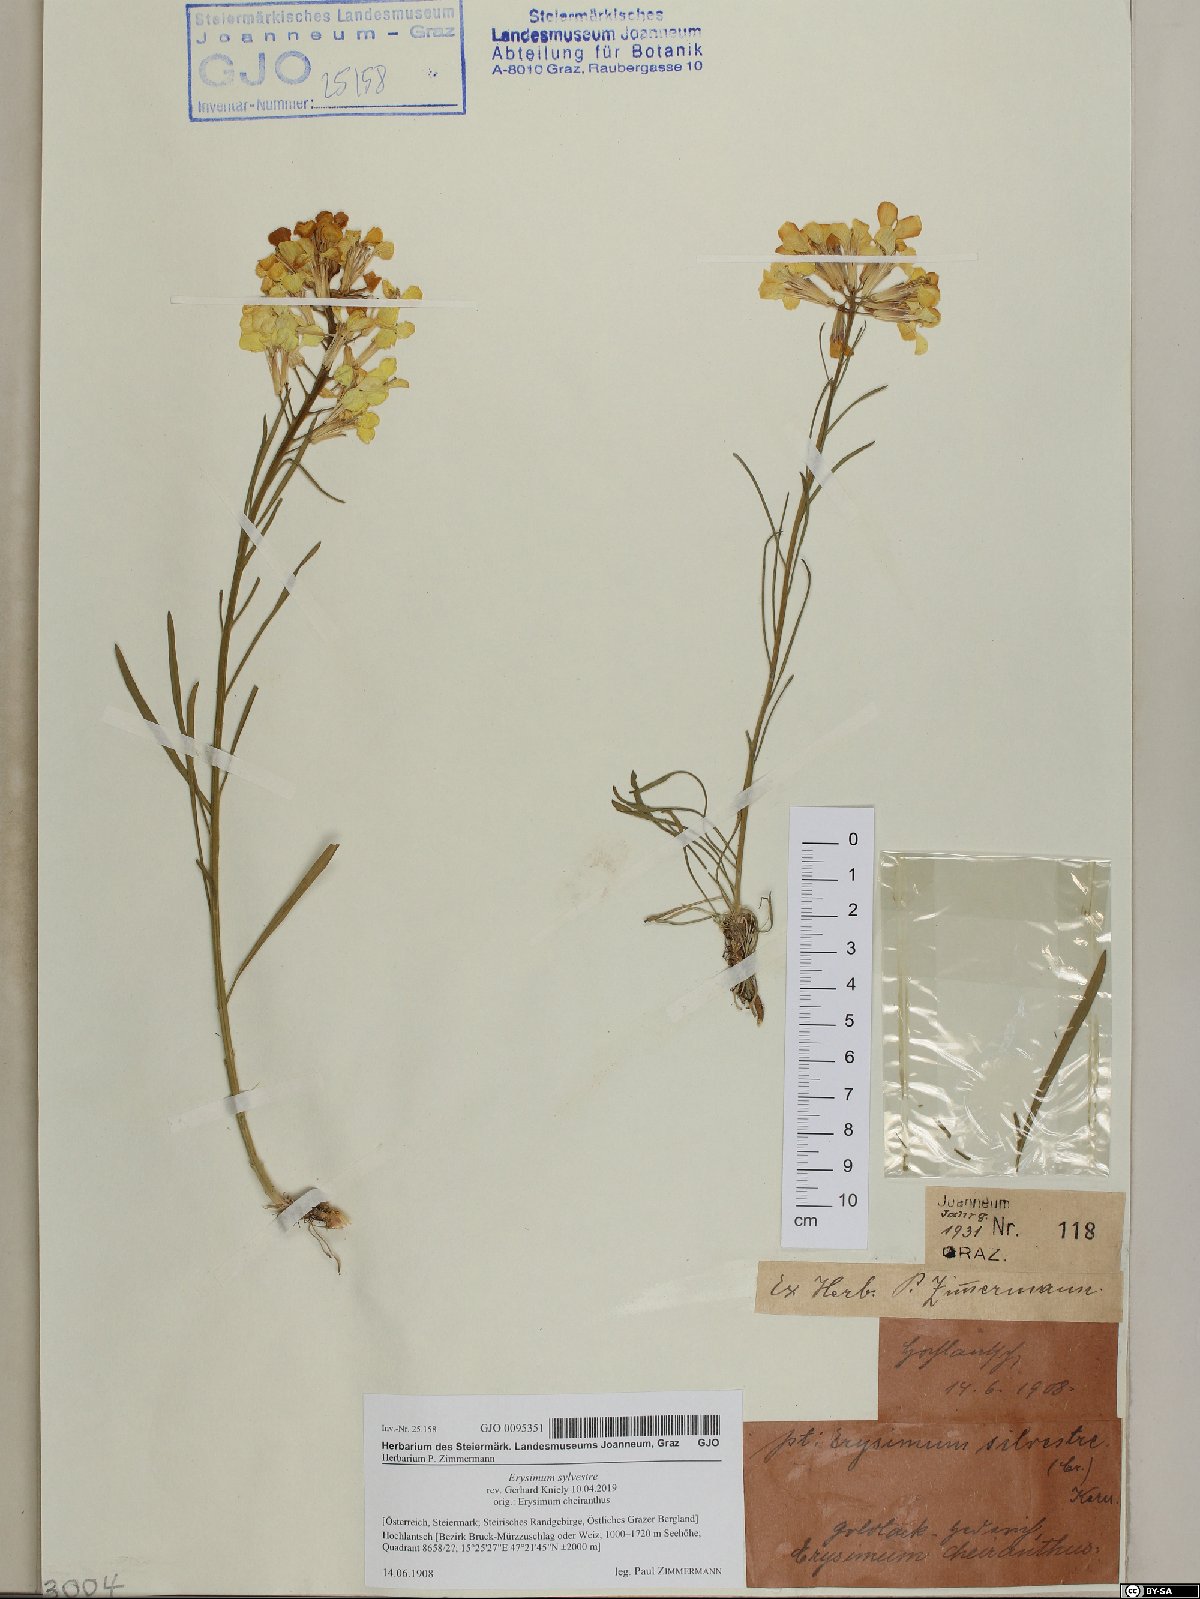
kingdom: Plantae
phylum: Tracheophyta
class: Magnoliopsida
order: Brassicales
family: Brassicaceae
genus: Erysimum
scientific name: Erysimum sylvestre
